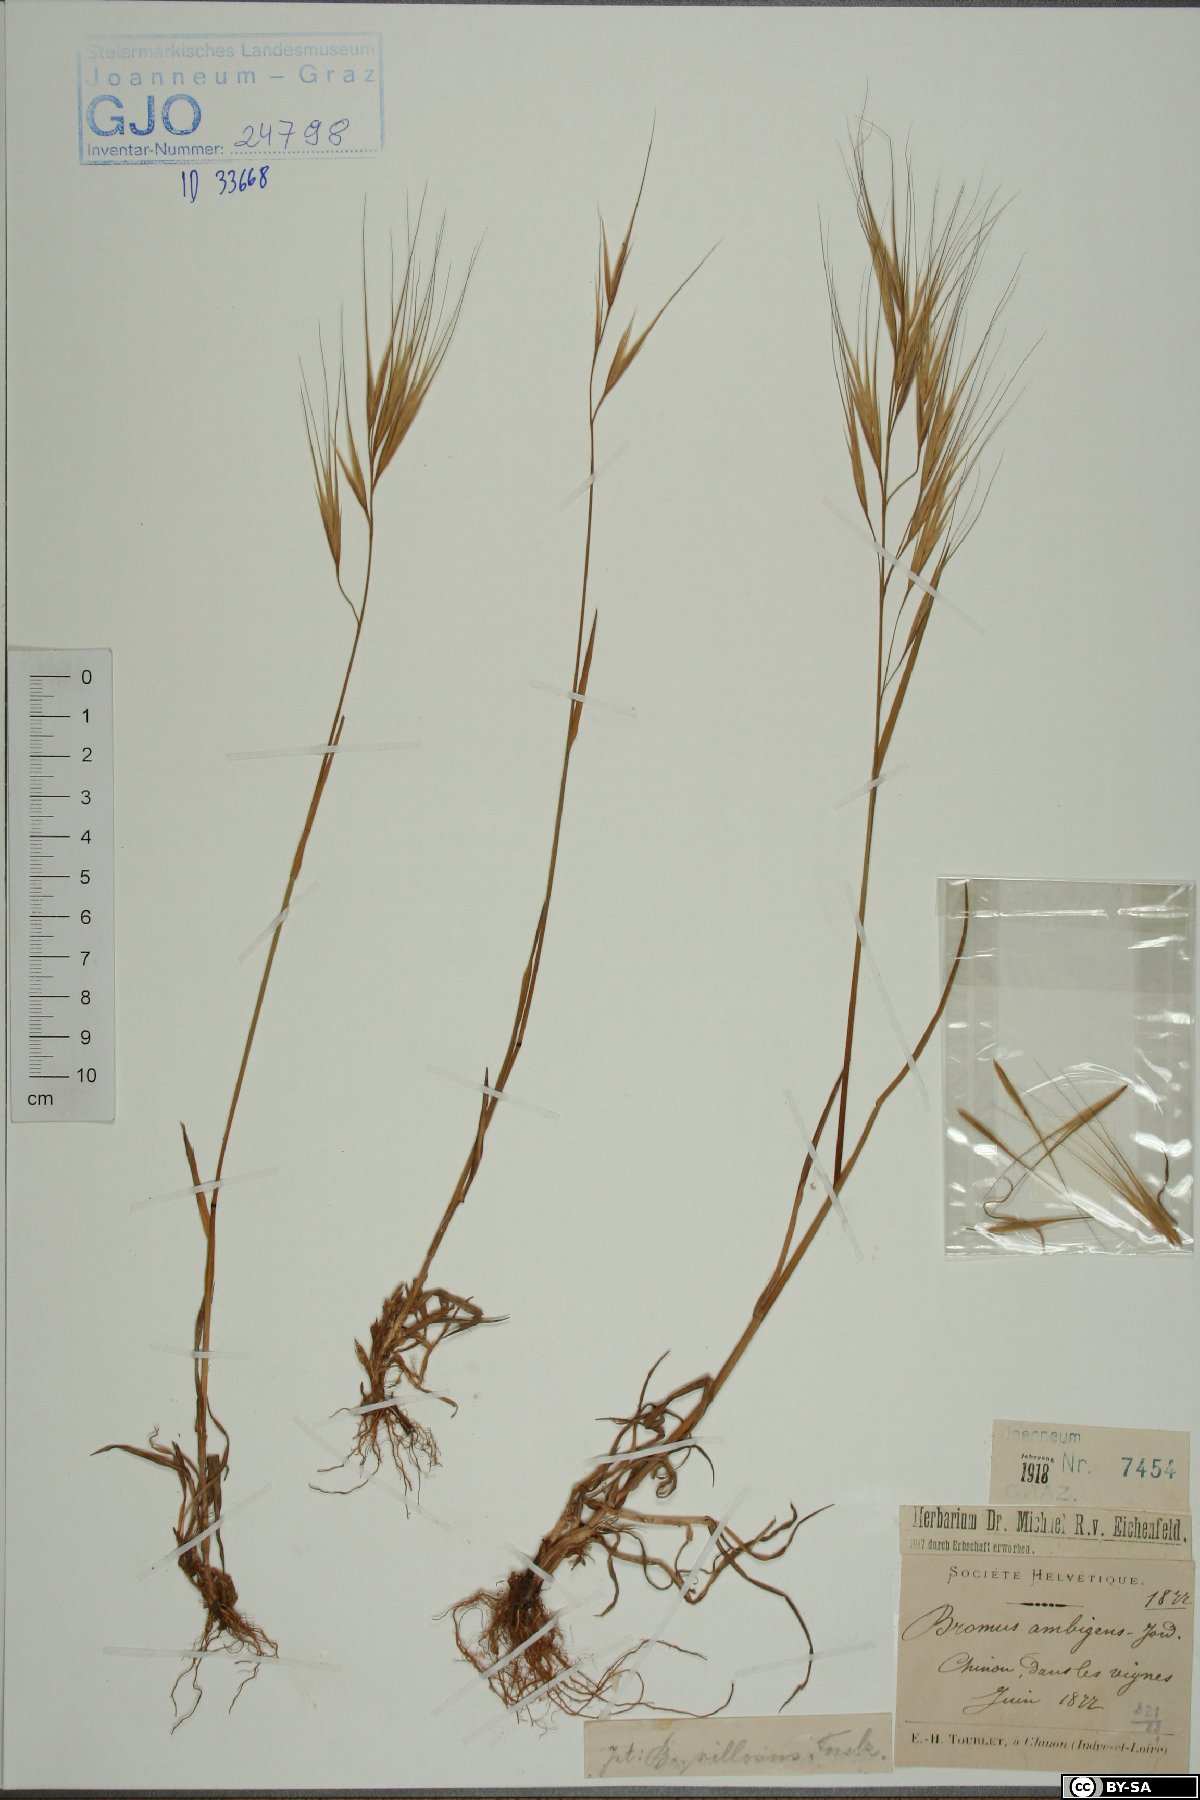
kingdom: Plantae
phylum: Tracheophyta
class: Liliopsida
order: Poales
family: Poaceae
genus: Triticum
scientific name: Triticum Bromus ambigens
